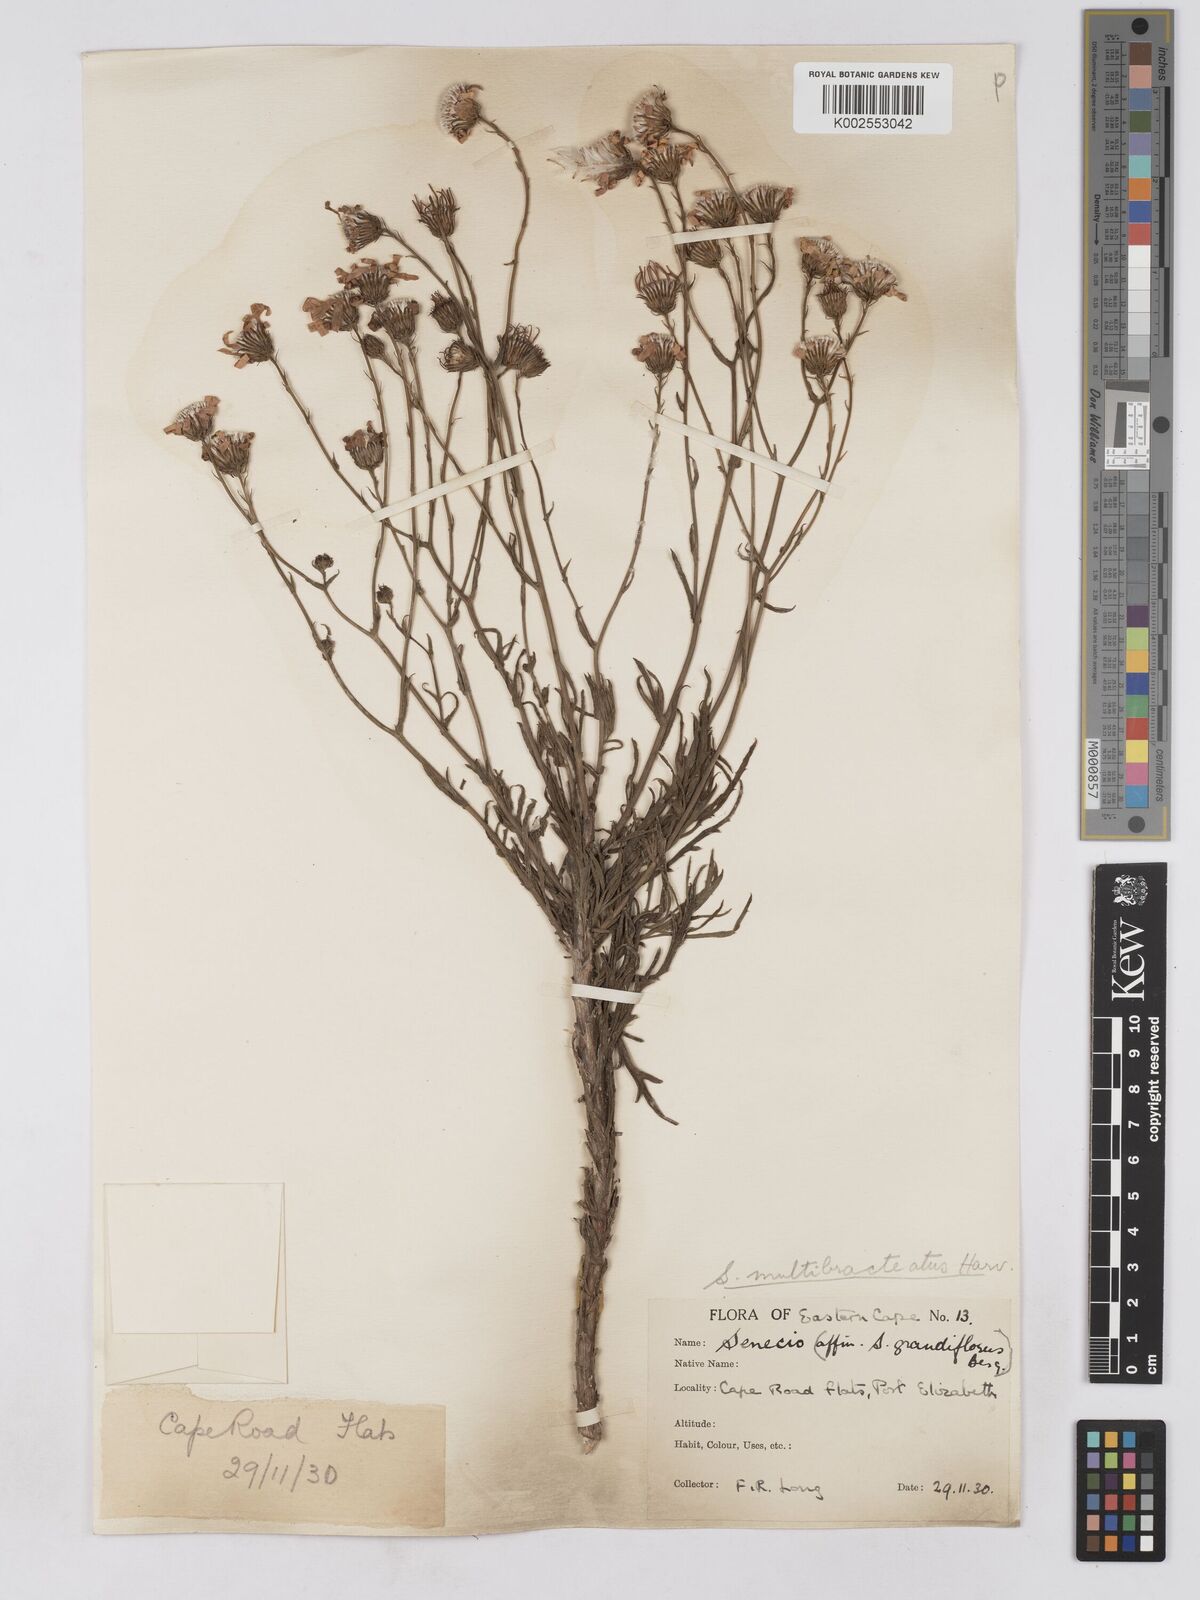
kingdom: Plantae
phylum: Tracheophyta
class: Magnoliopsida
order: Asterales
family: Asteraceae
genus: Senecio
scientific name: Senecio multibracteatus
